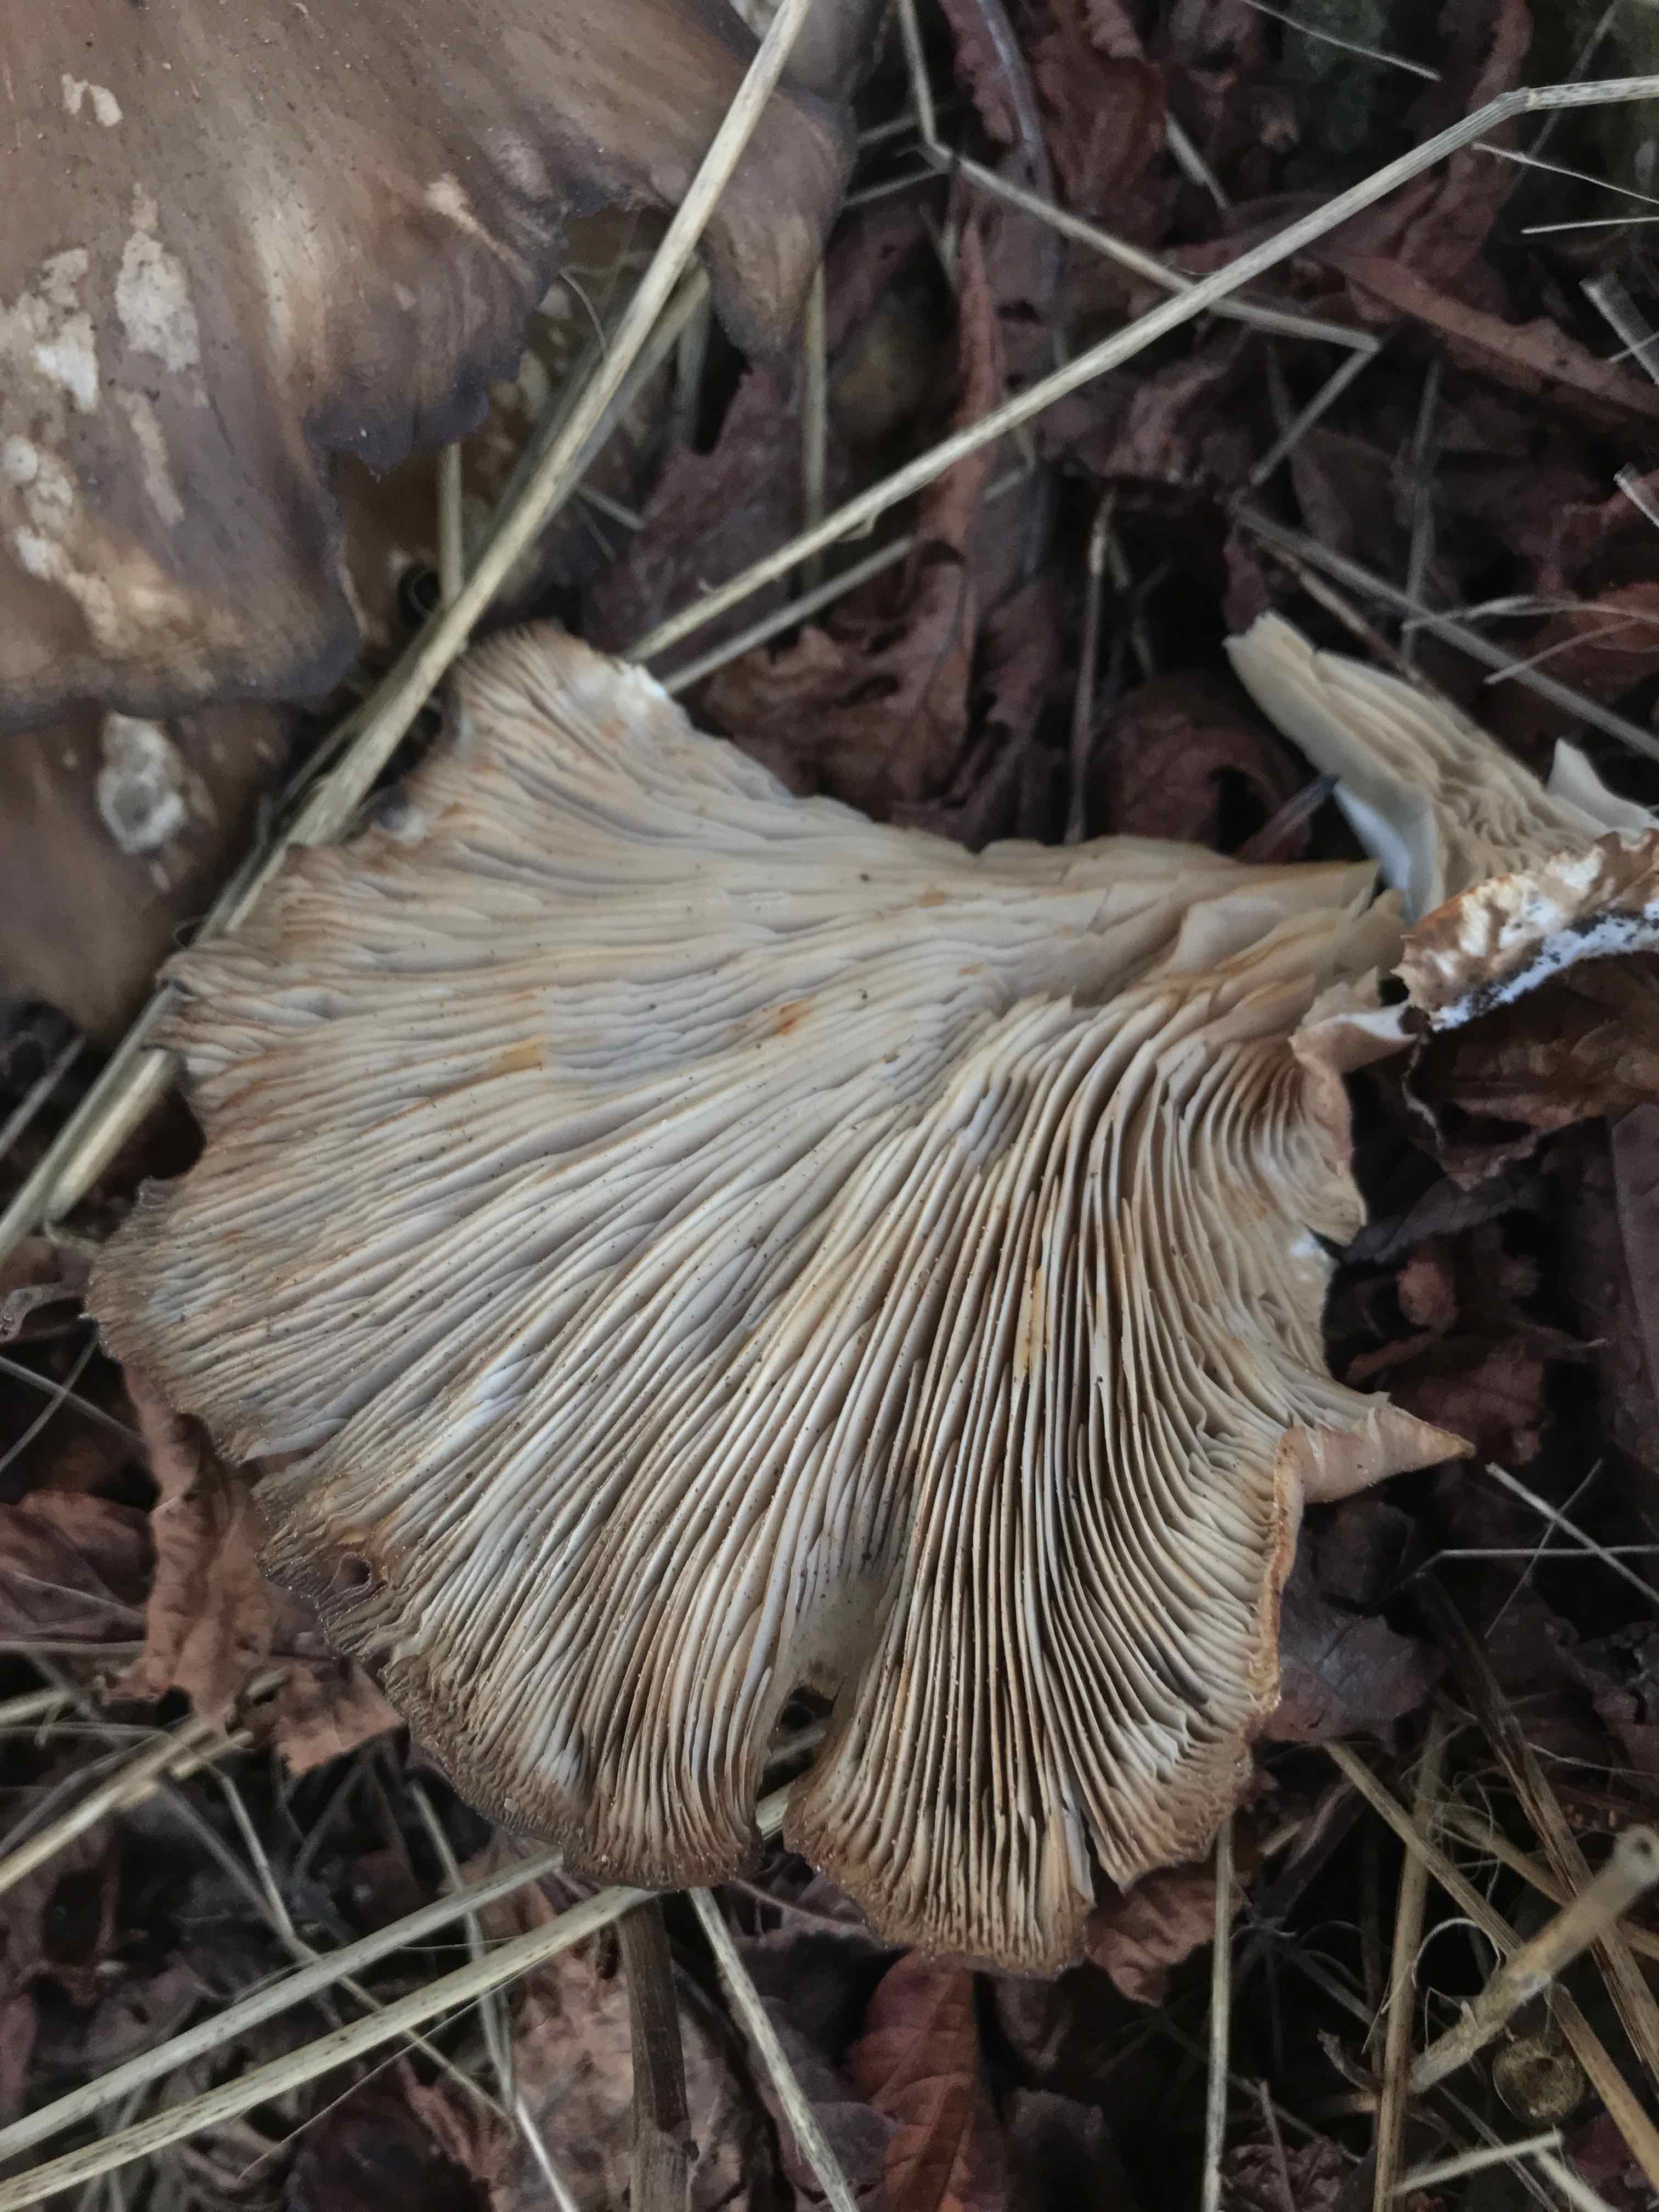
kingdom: Fungi
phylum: Basidiomycota
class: Agaricomycetes
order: Agaricales
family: Pleurotaceae
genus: Pleurotus
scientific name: Pleurotus ostreatus
